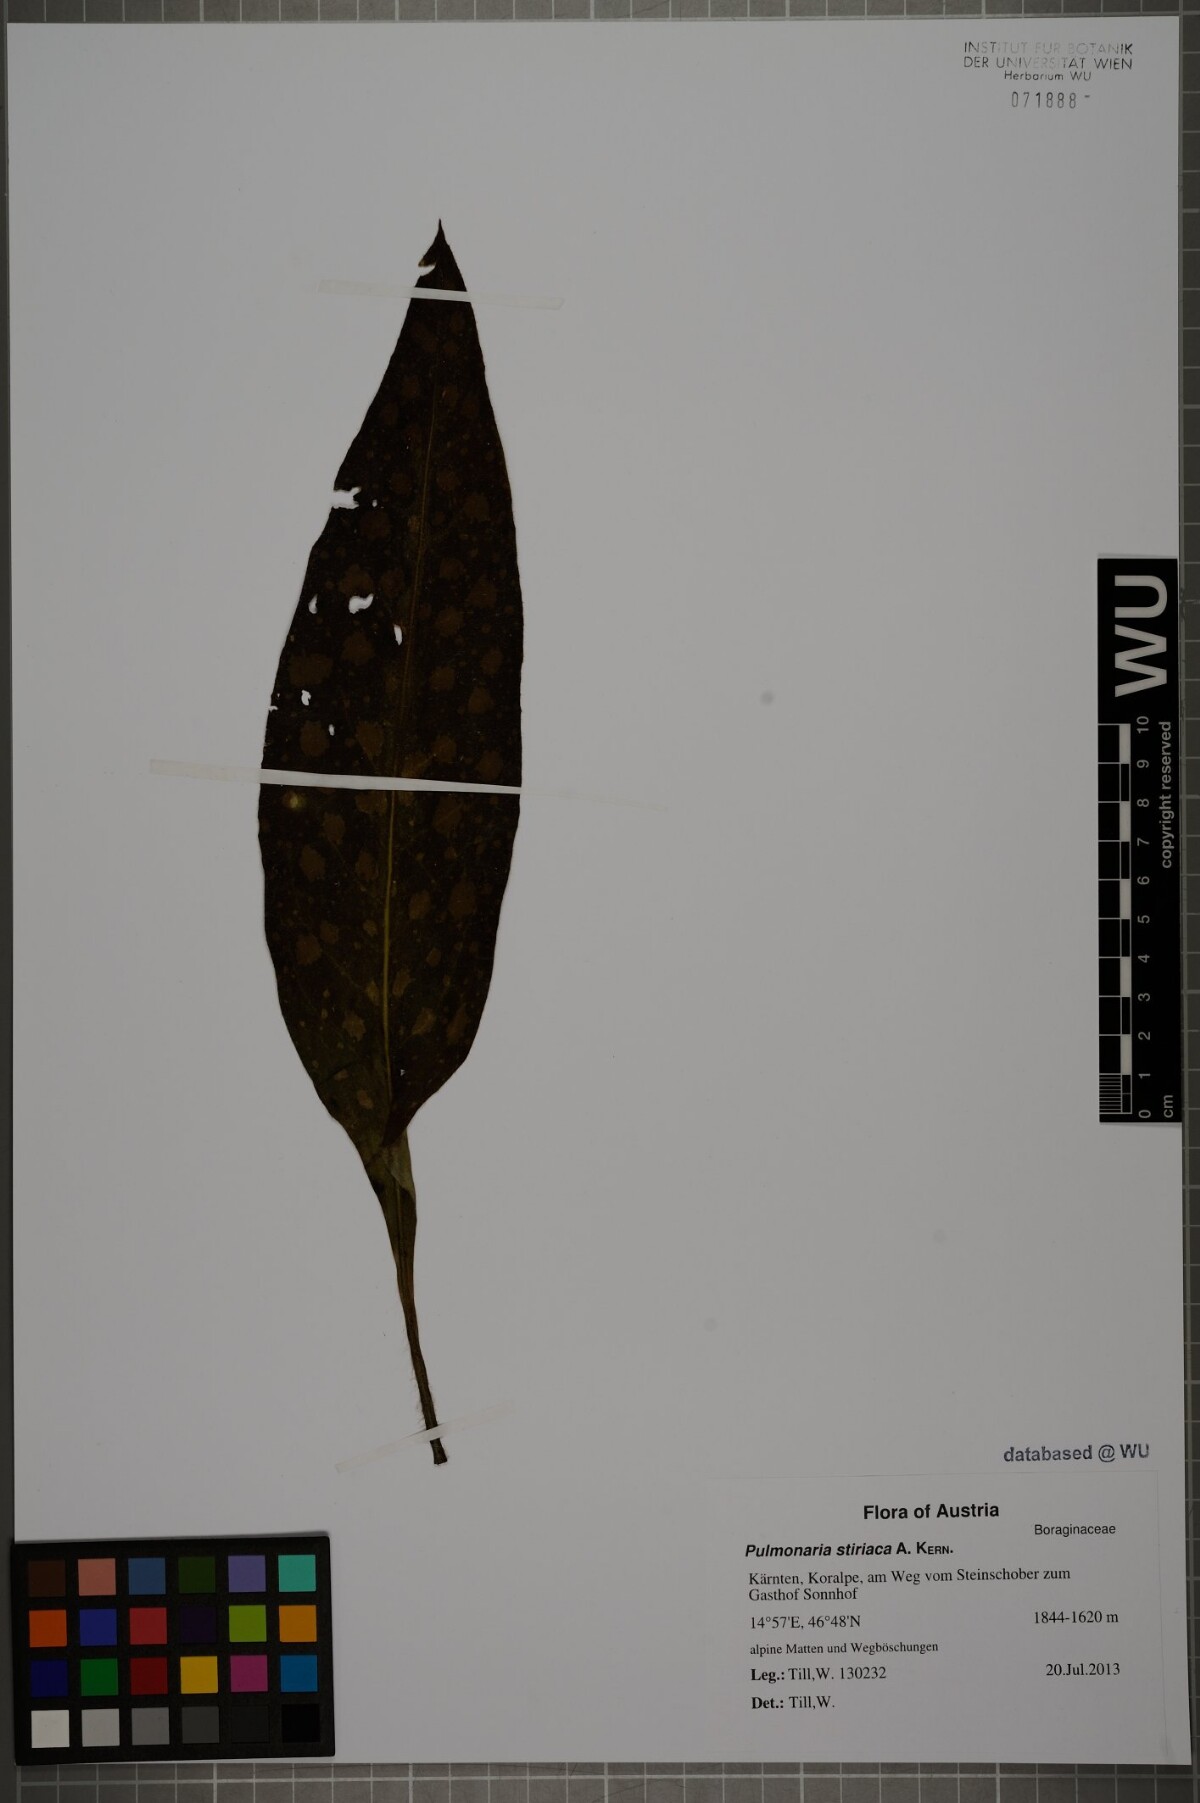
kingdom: Plantae
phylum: Tracheophyta
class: Magnoliopsida
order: Boraginales
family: Boraginaceae
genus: Pulmonaria
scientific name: Pulmonaria stiriaca
